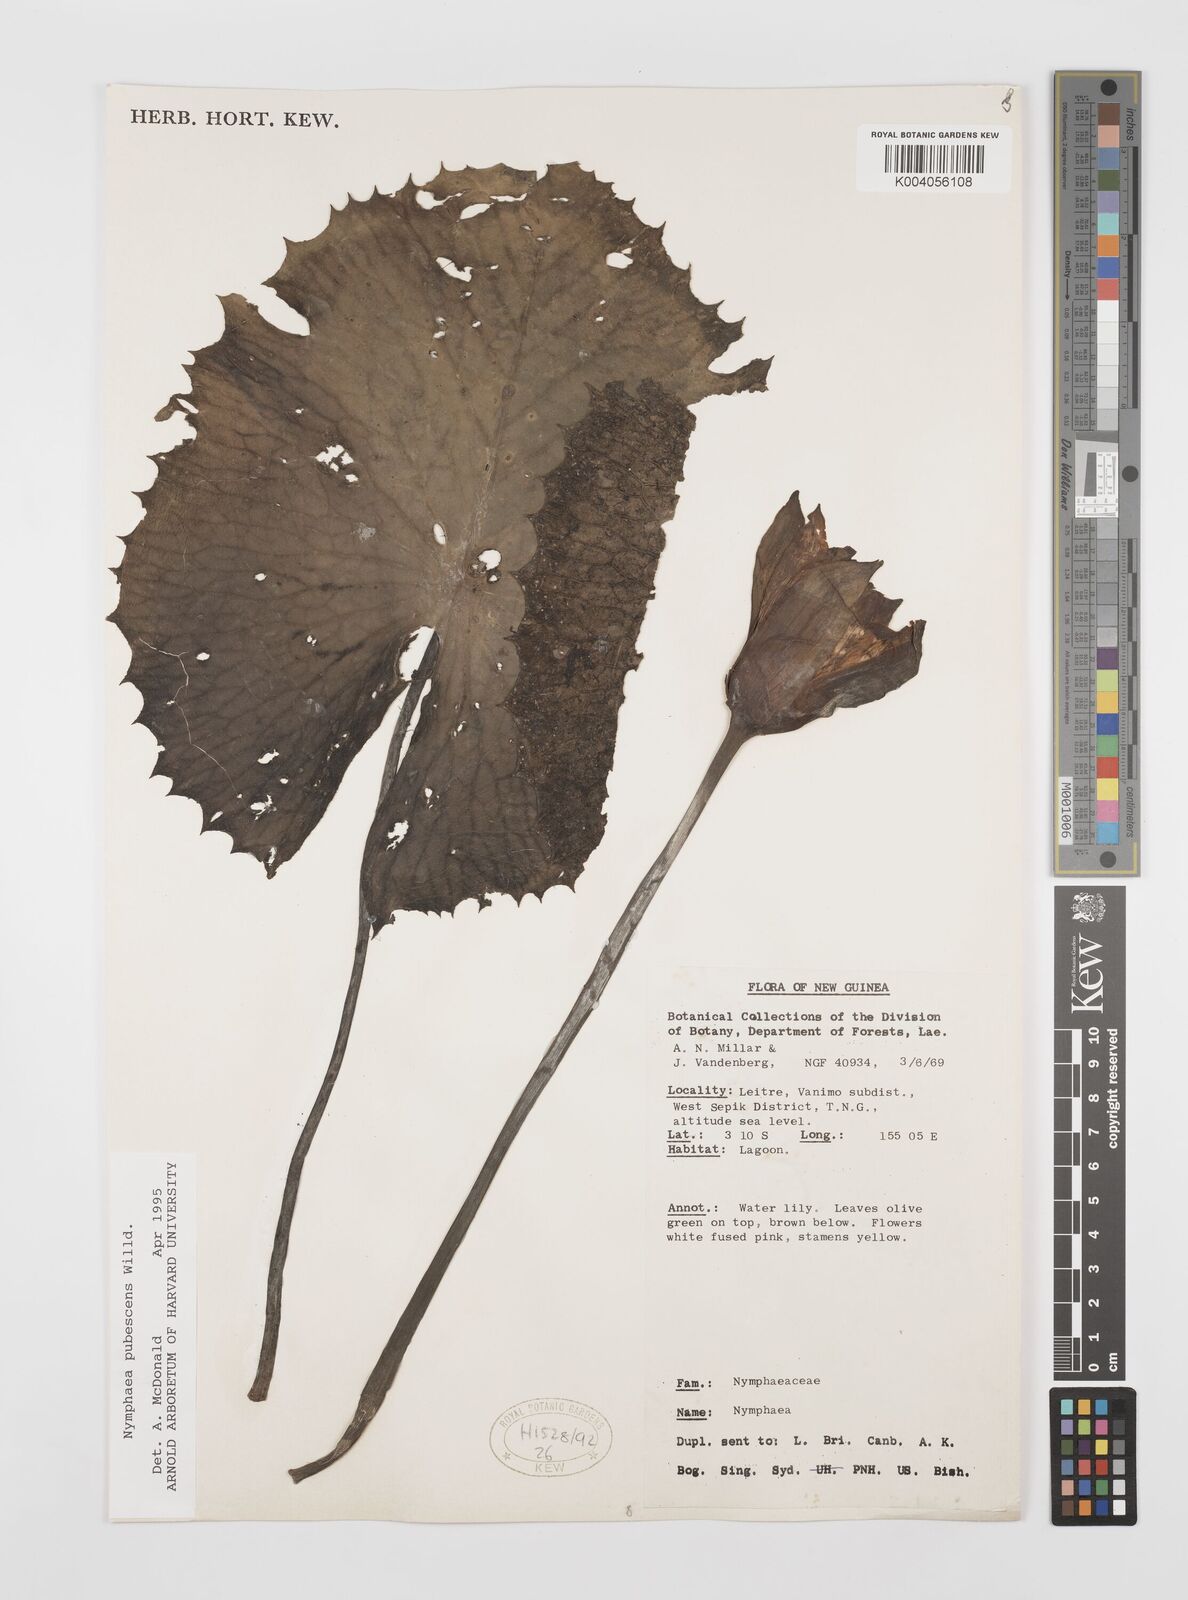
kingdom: Plantae
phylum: Tracheophyta
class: Magnoliopsida
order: Nymphaeales
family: Nymphaeaceae
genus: Nymphaea
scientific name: Nymphaea pubescens
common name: Hairy water lily
